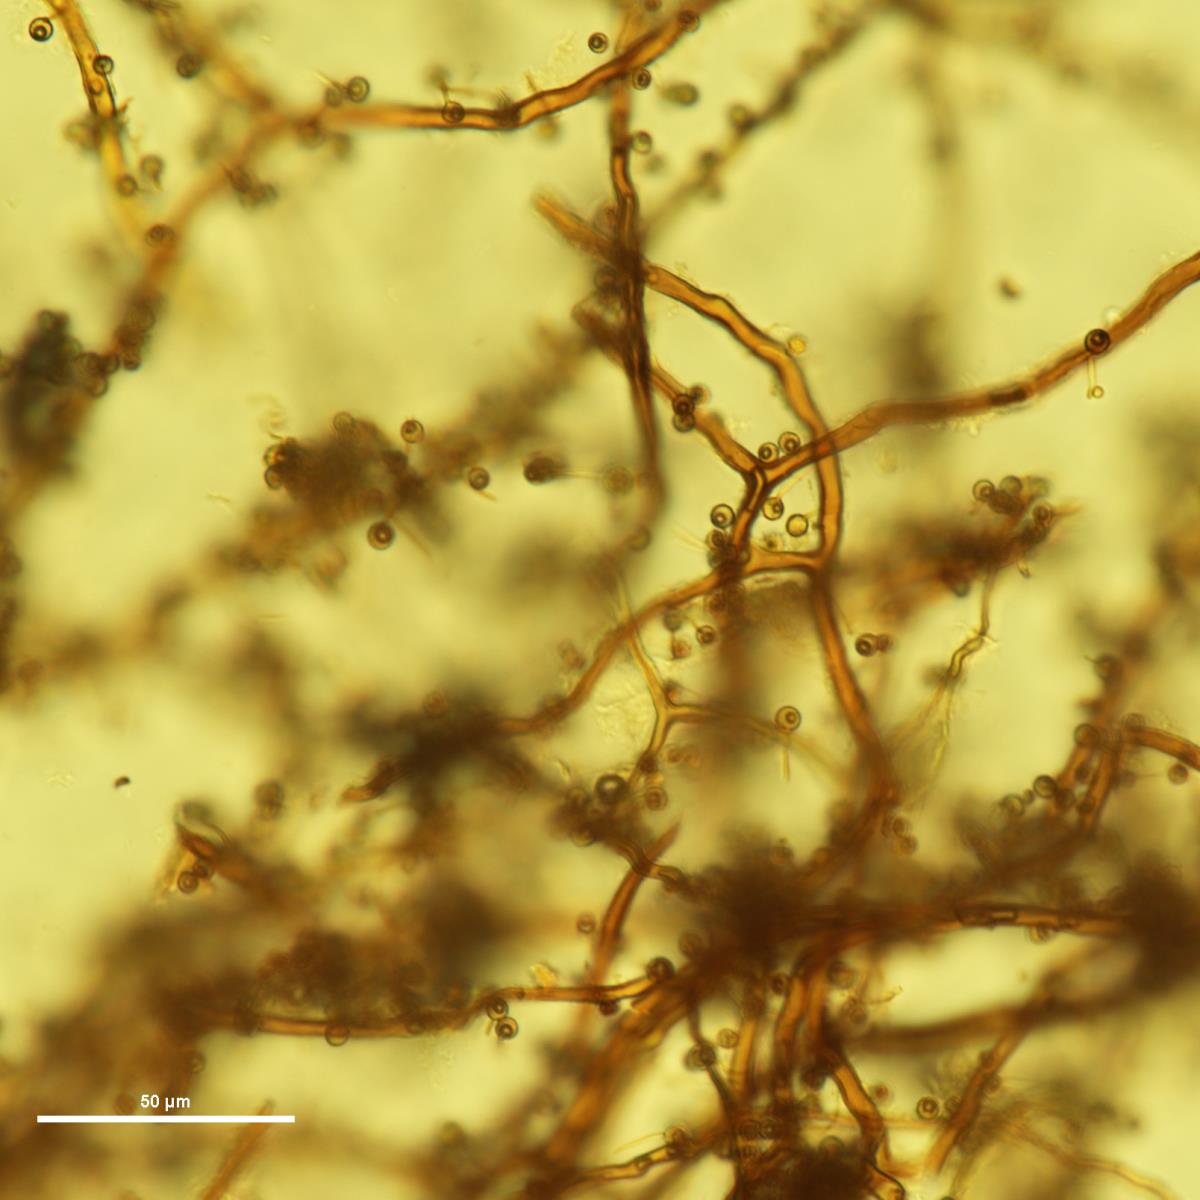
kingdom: Fungi
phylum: Basidiomycota
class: Agaricomycetes
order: Agaricales
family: Lycoperdaceae
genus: Bovista
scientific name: Bovista gunnii
